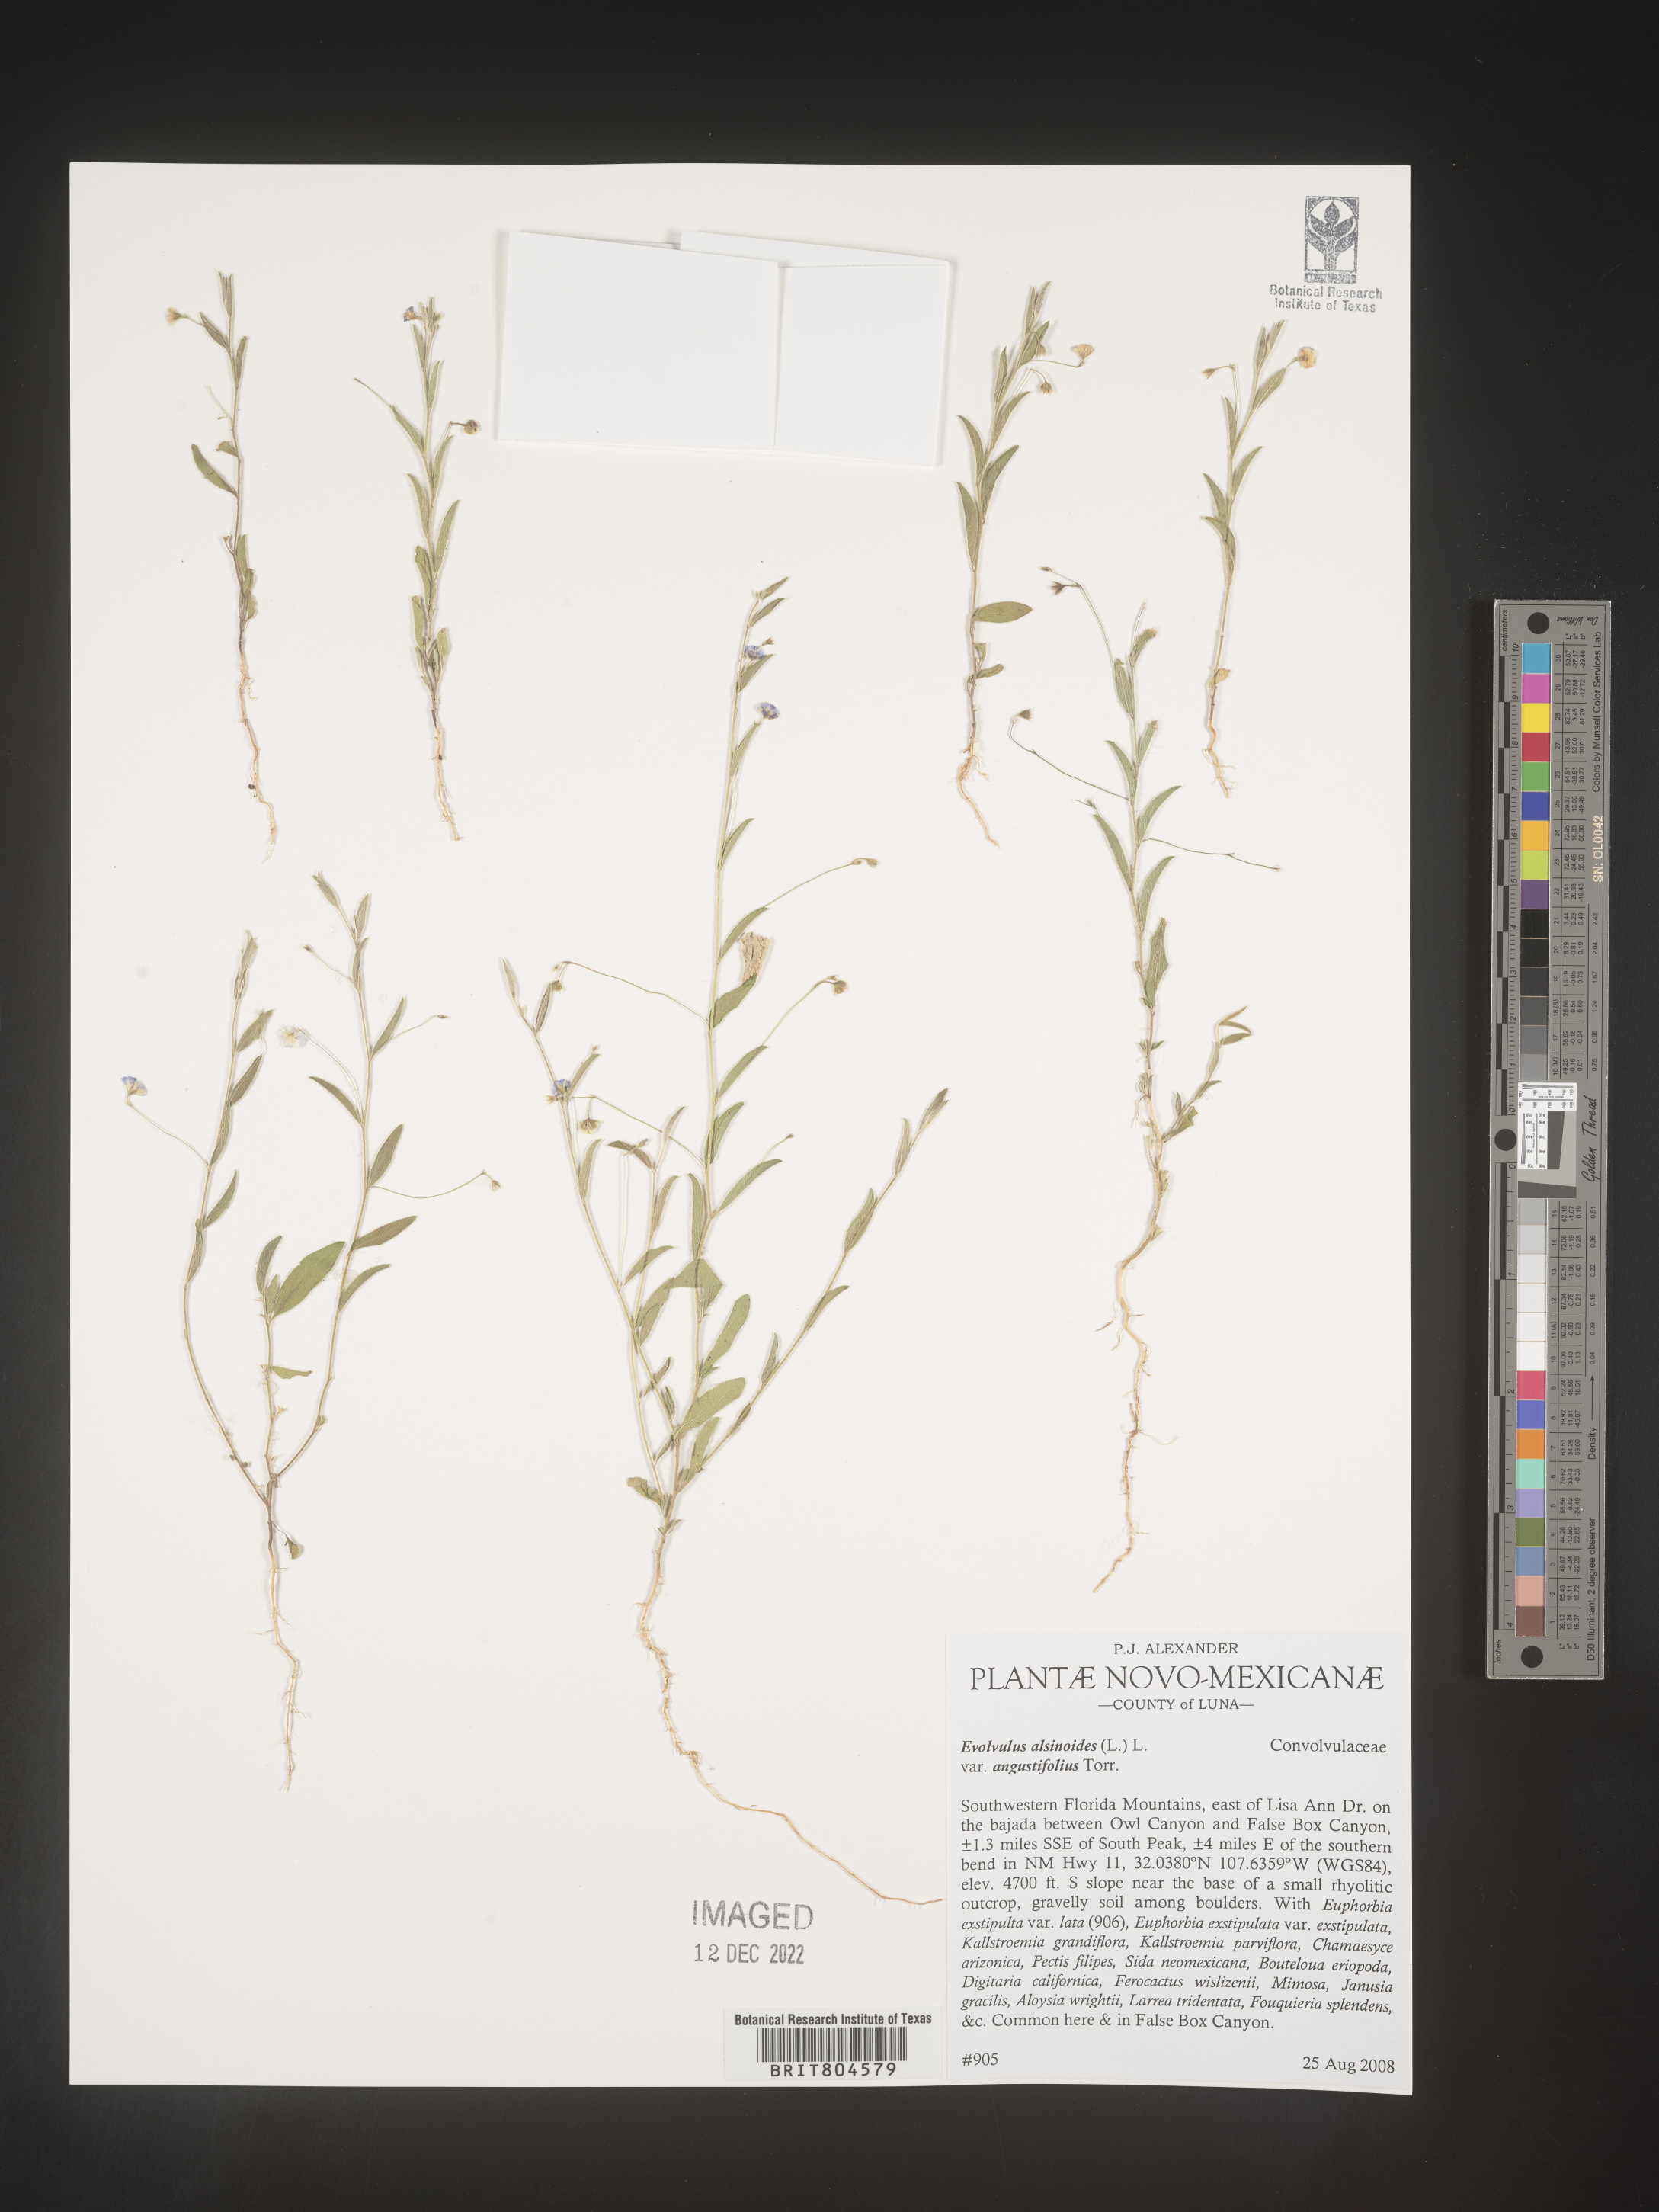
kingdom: Plantae
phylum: Tracheophyta
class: Magnoliopsida
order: Solanales
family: Convolvulaceae
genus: Evolvulus
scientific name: Evolvulus
